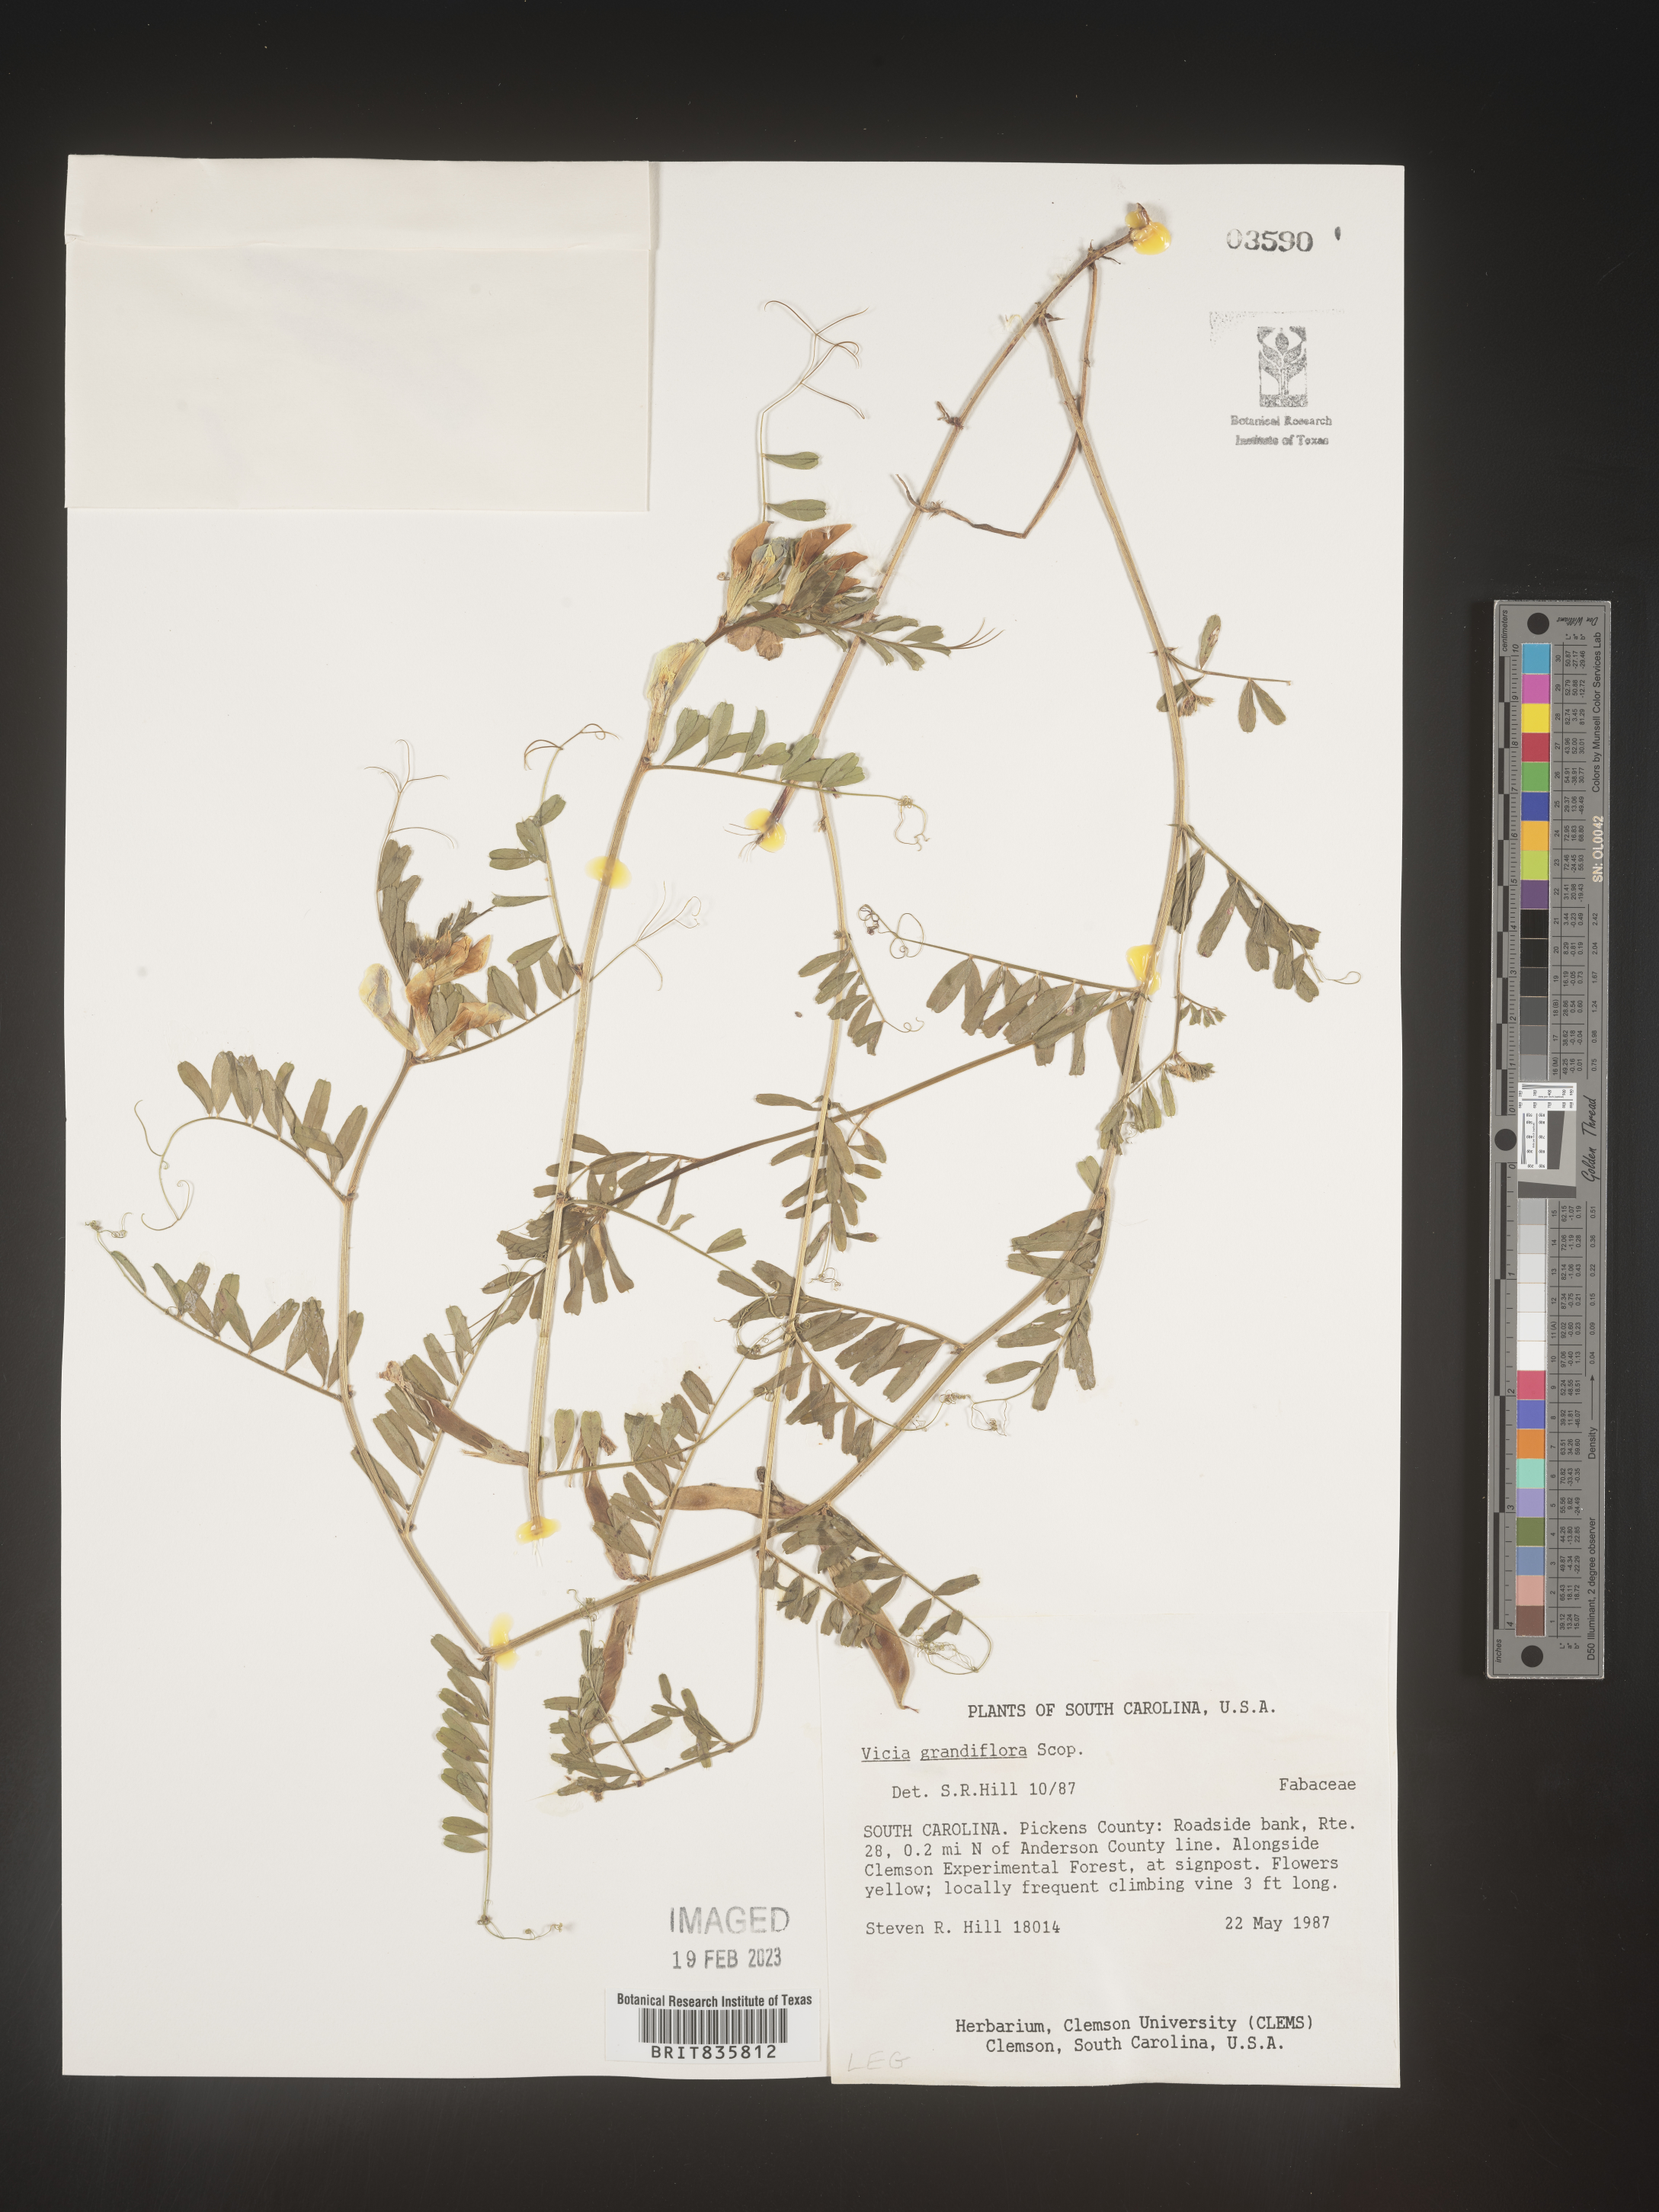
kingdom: Plantae
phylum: Tracheophyta
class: Magnoliopsida
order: Fabales
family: Fabaceae
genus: Vicia
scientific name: Vicia grandiflora
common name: Large yellow vetch
